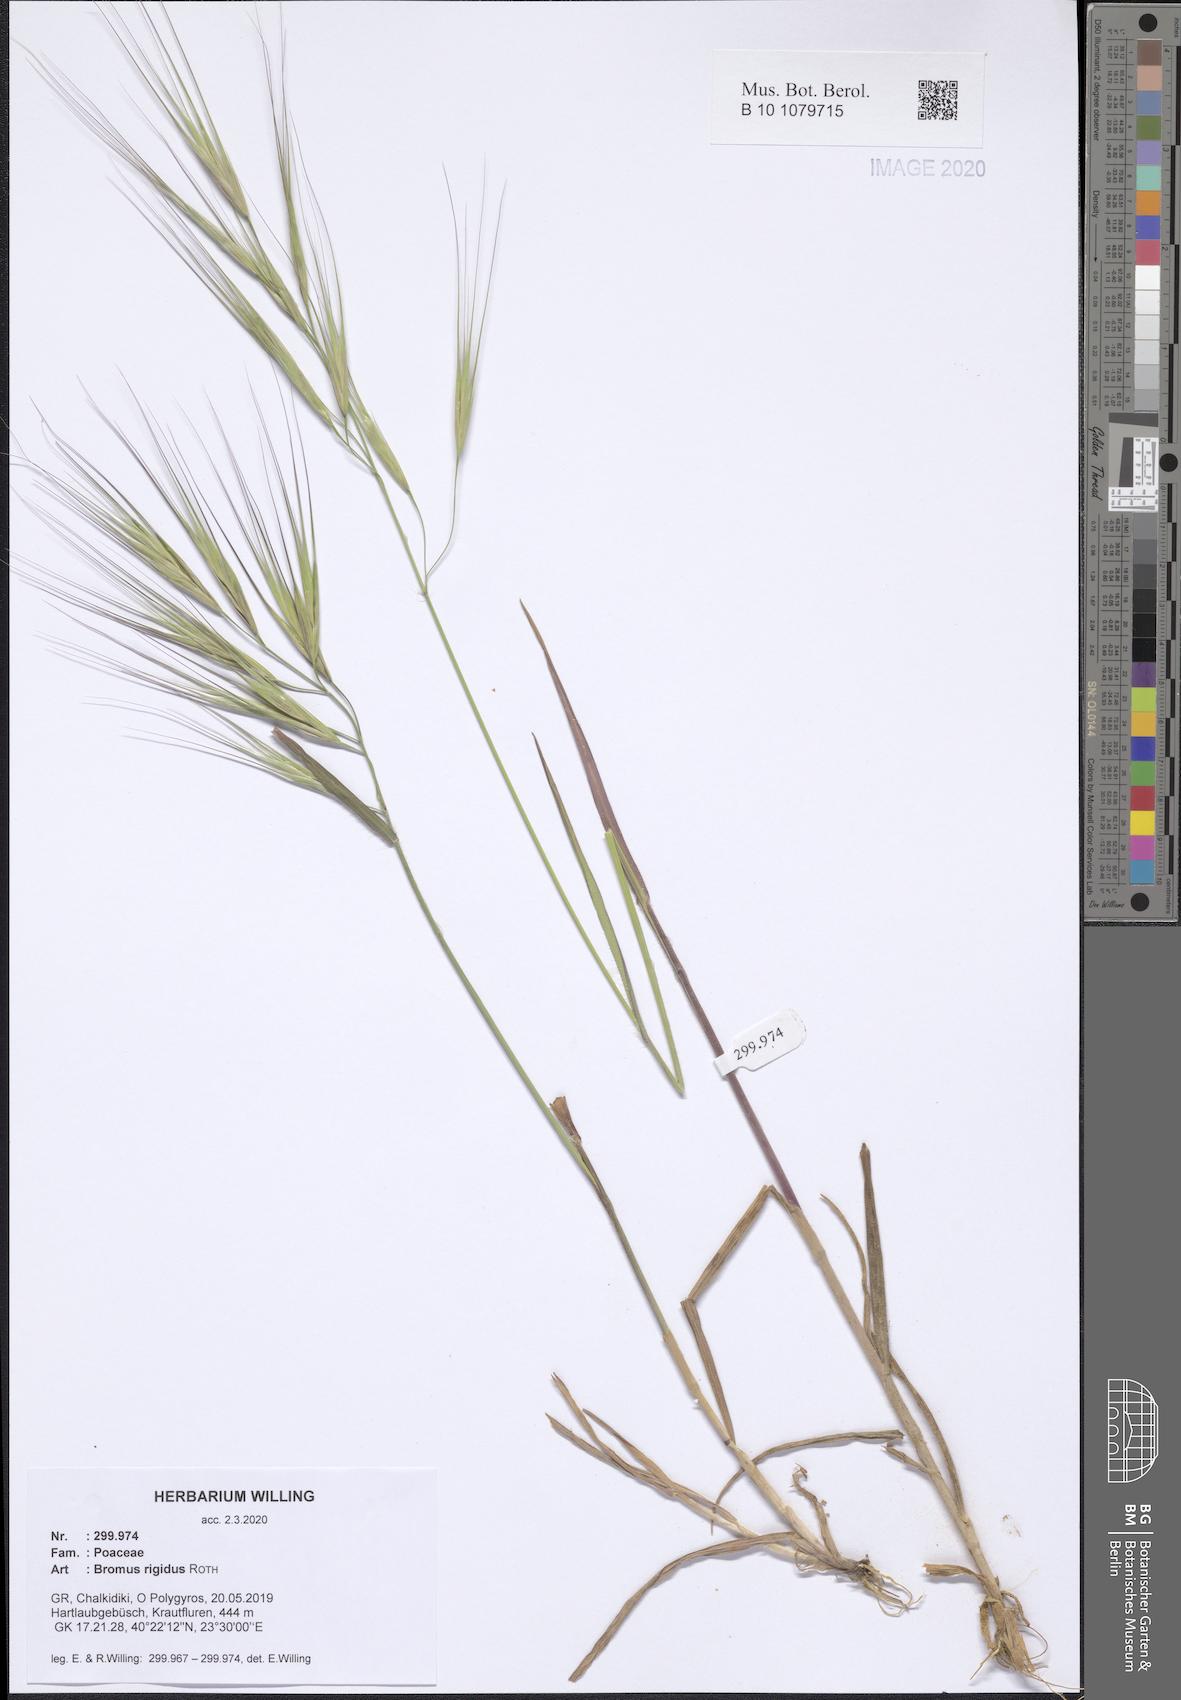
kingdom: Plantae
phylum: Tracheophyta
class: Liliopsida
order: Poales
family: Poaceae
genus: Bromus
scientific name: Bromus rigidus
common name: Ripgut brome
